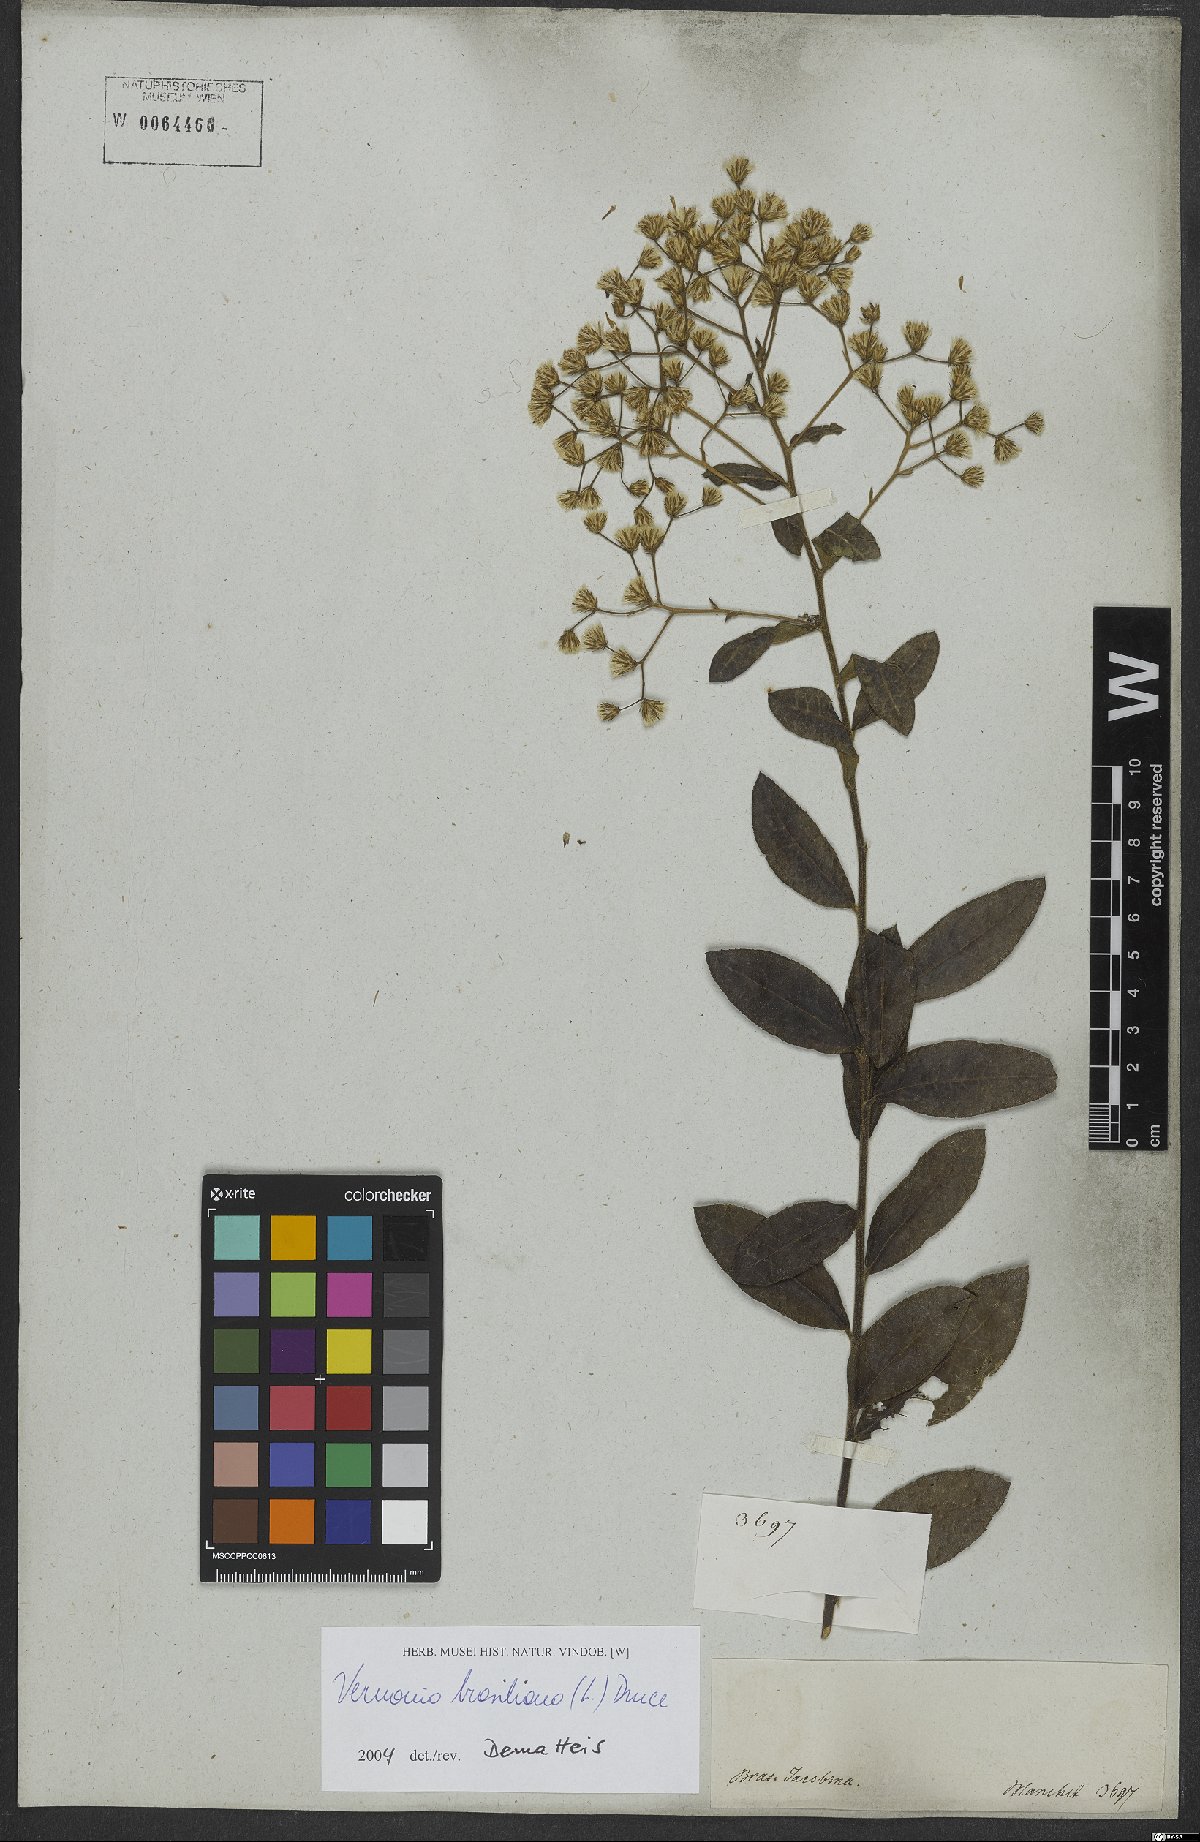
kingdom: Plantae
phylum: Tracheophyta
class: Magnoliopsida
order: Asterales
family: Asteraceae
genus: Vernonanthura
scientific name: Vernonanthura brasiliana
